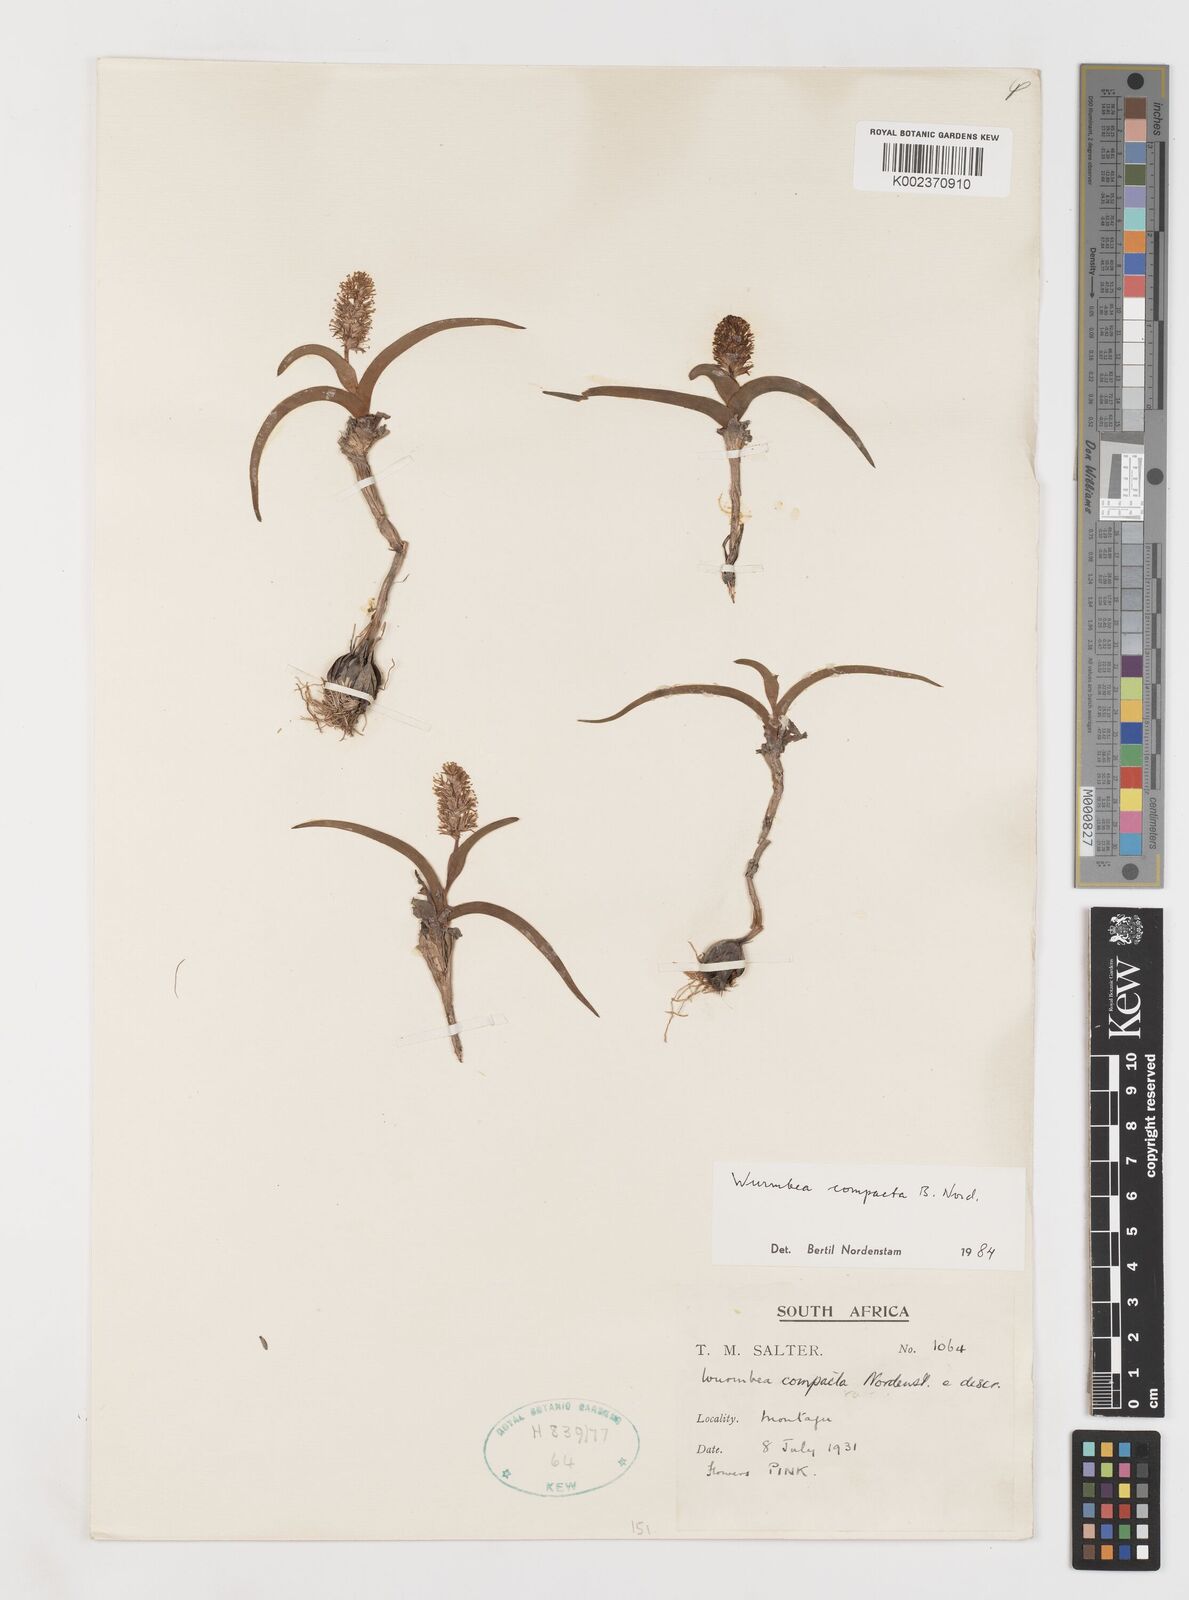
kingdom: Plantae
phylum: Tracheophyta
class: Liliopsida
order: Liliales
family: Colchicaceae
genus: Wurmbea
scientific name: Wurmbea compacta
